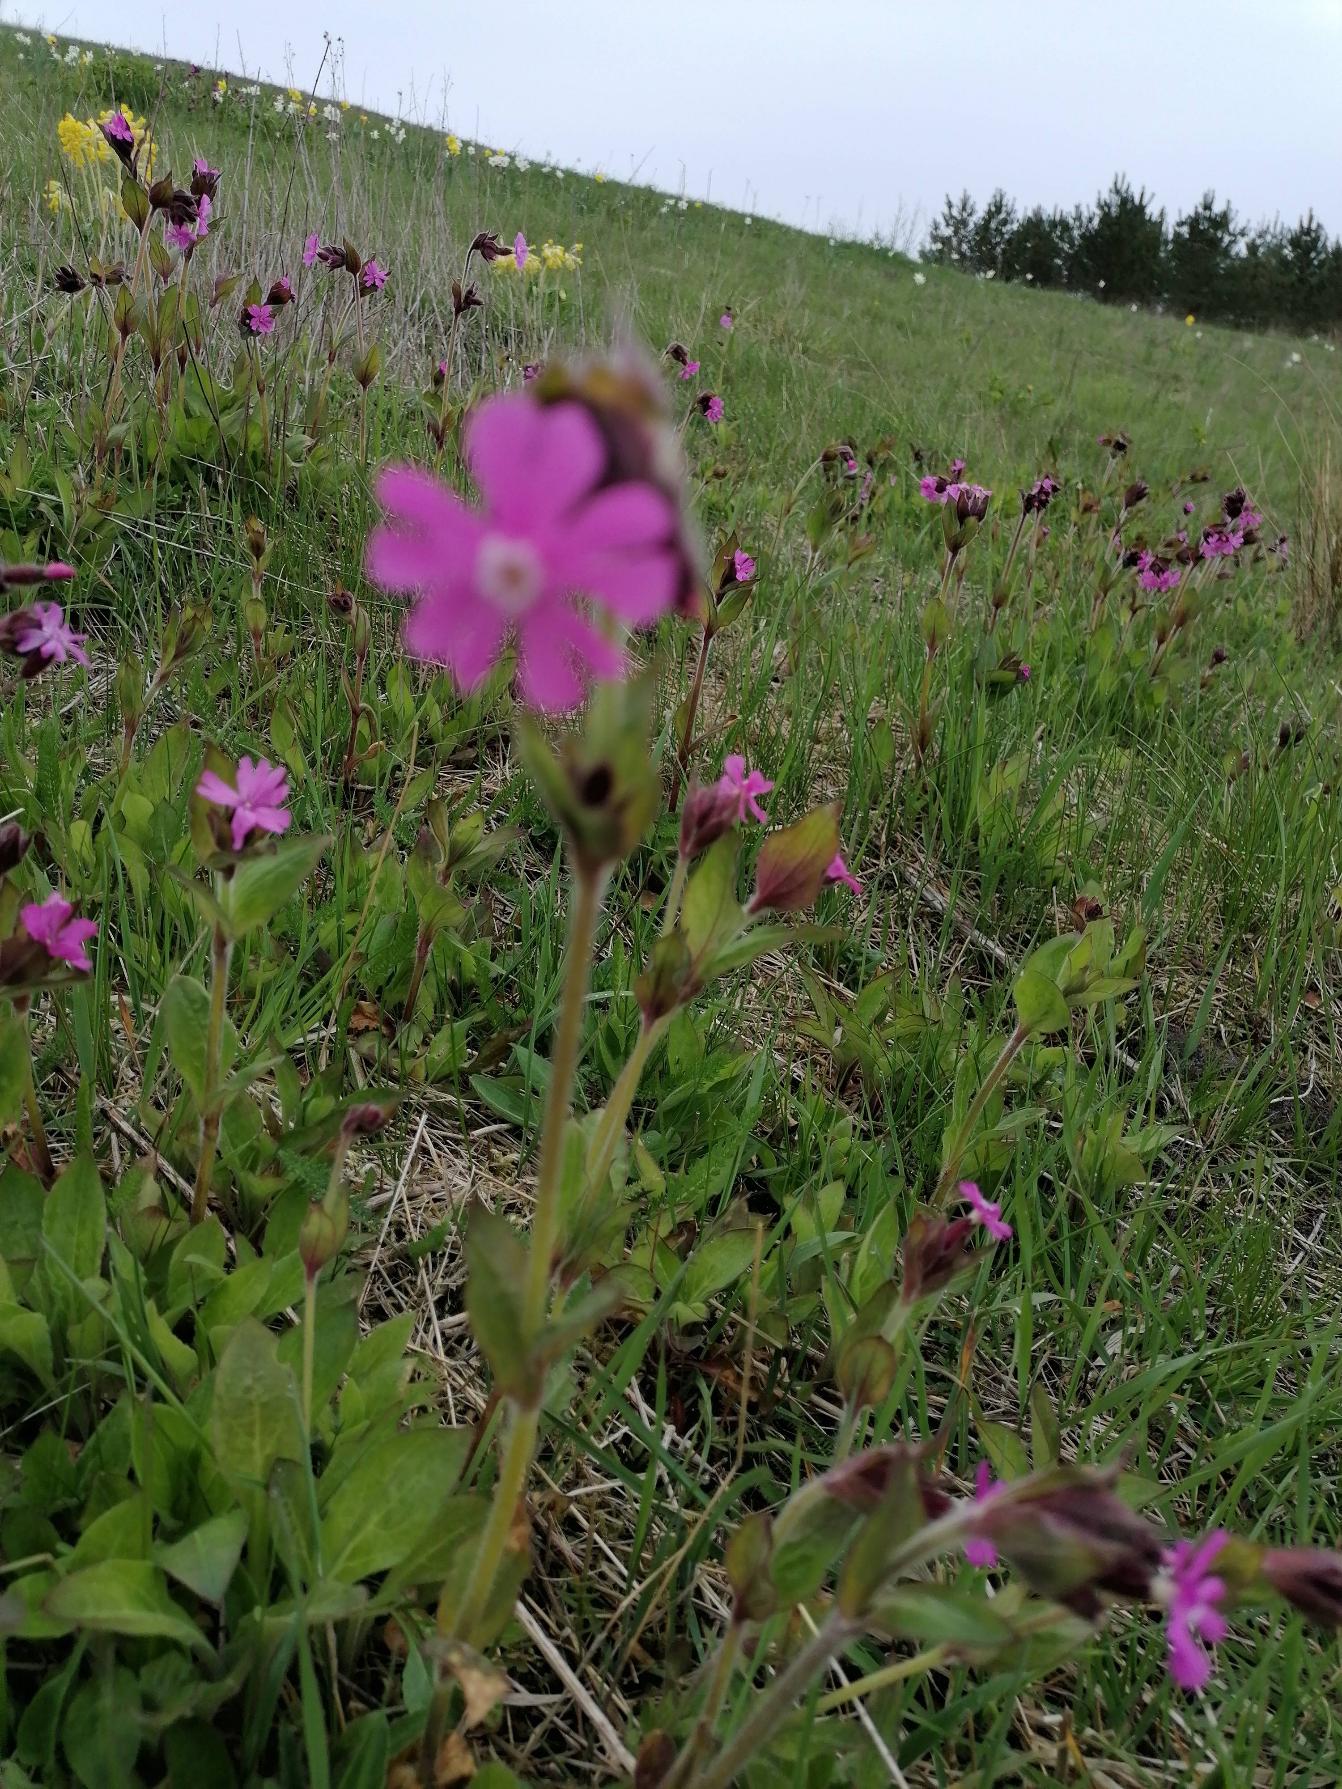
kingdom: Plantae
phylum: Tracheophyta
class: Magnoliopsida
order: Caryophyllales
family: Caryophyllaceae
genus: Silene
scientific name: Silene dioica
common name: Dagpragtstjerne
